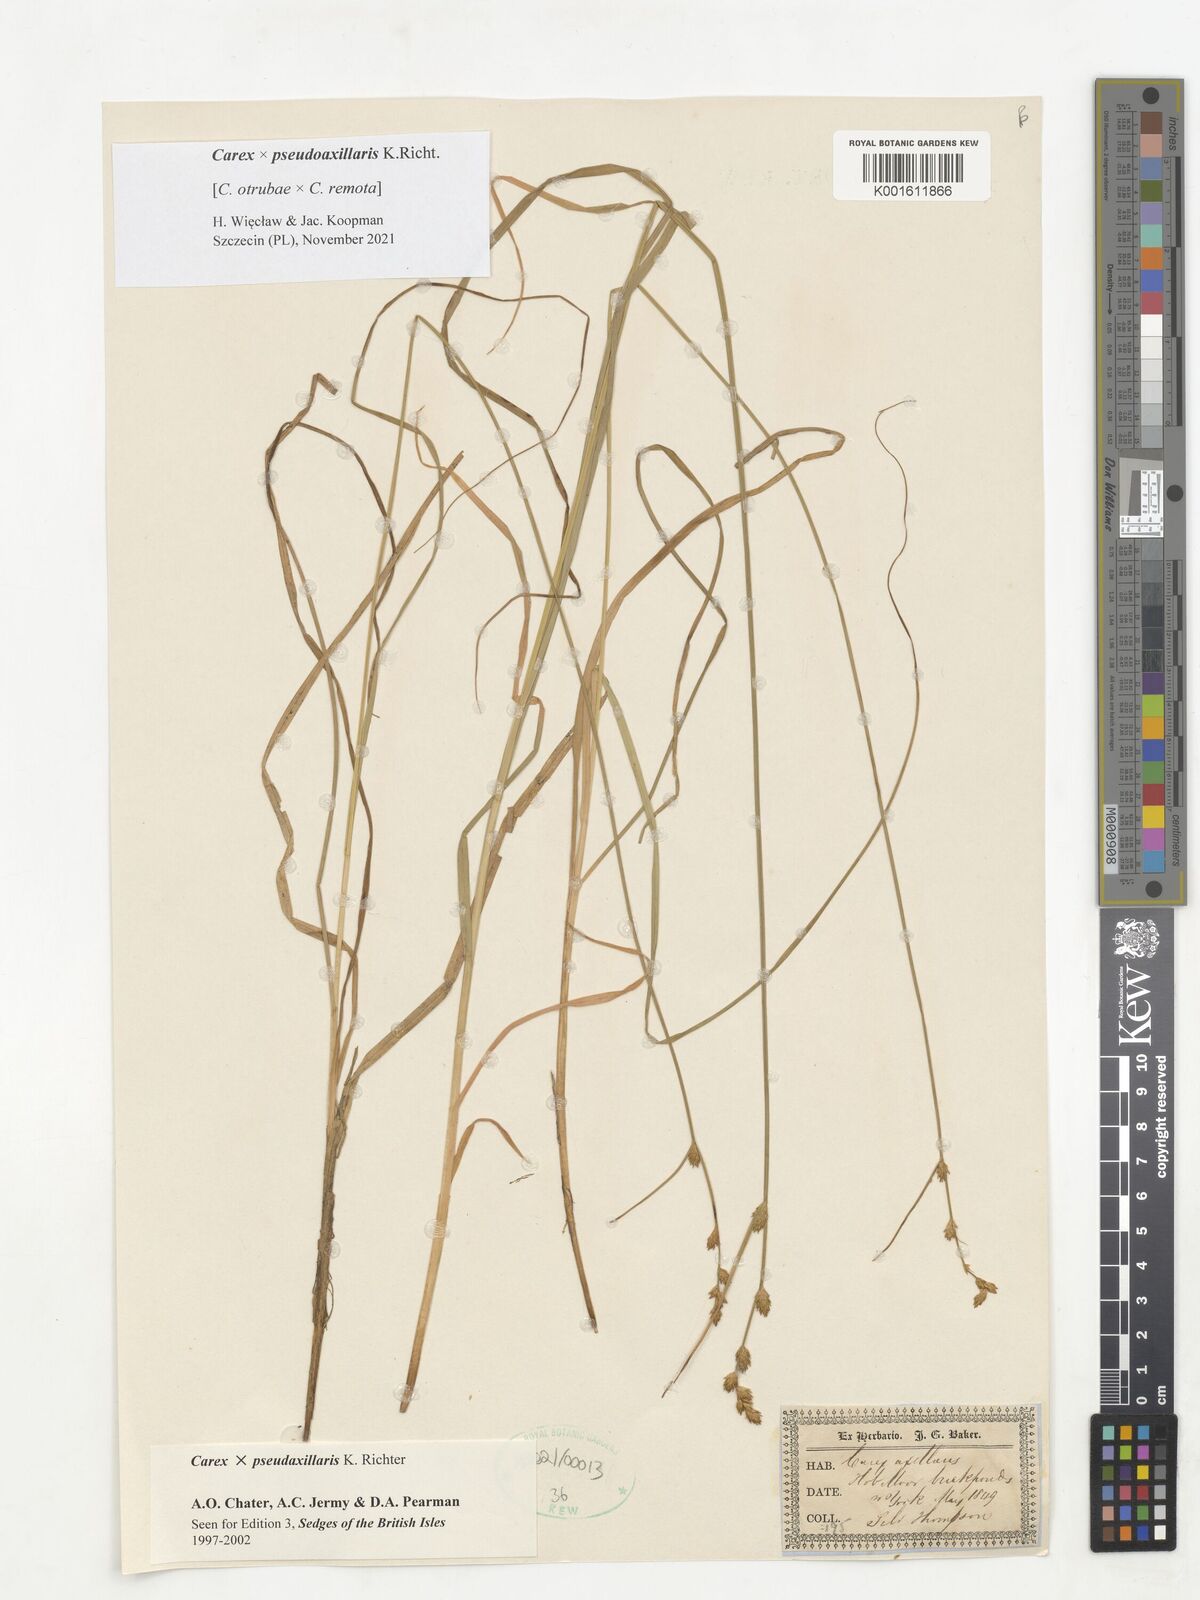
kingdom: Plantae
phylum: Tracheophyta
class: Liliopsida
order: Poales
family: Cyperaceae
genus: Carex
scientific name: Carex pseudoaxillaris
